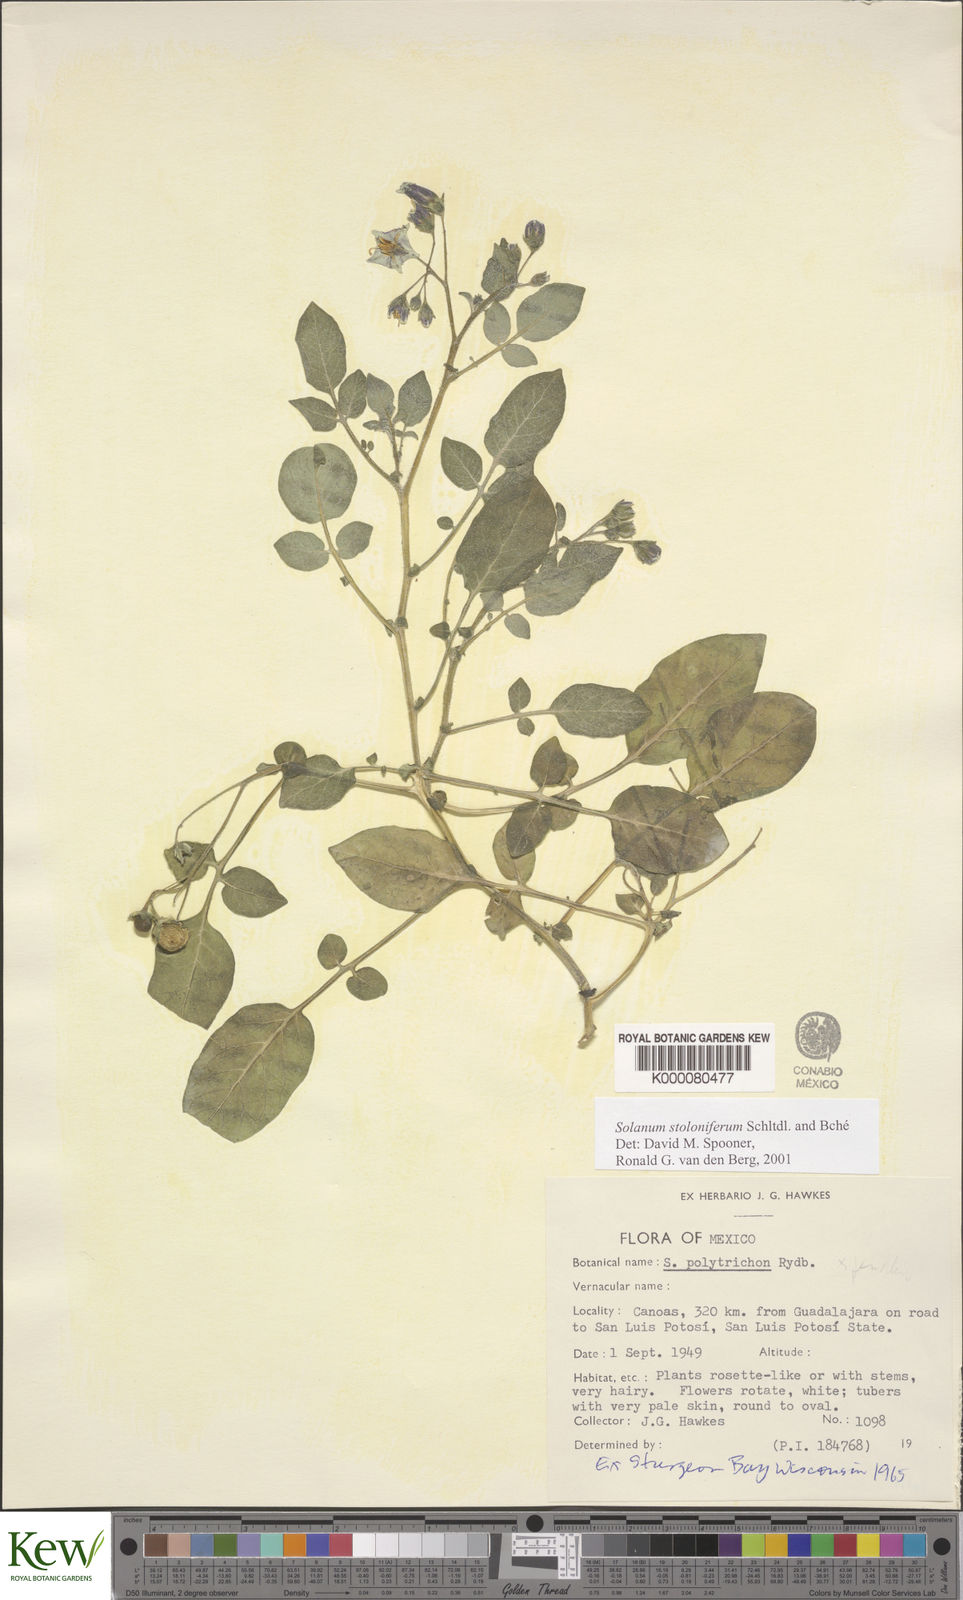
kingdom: Plantae
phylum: Tracheophyta
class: Magnoliopsida
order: Solanales
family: Solanaceae
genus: Solanum
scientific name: Solanum stoloniferum
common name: Fendler's nighshade
